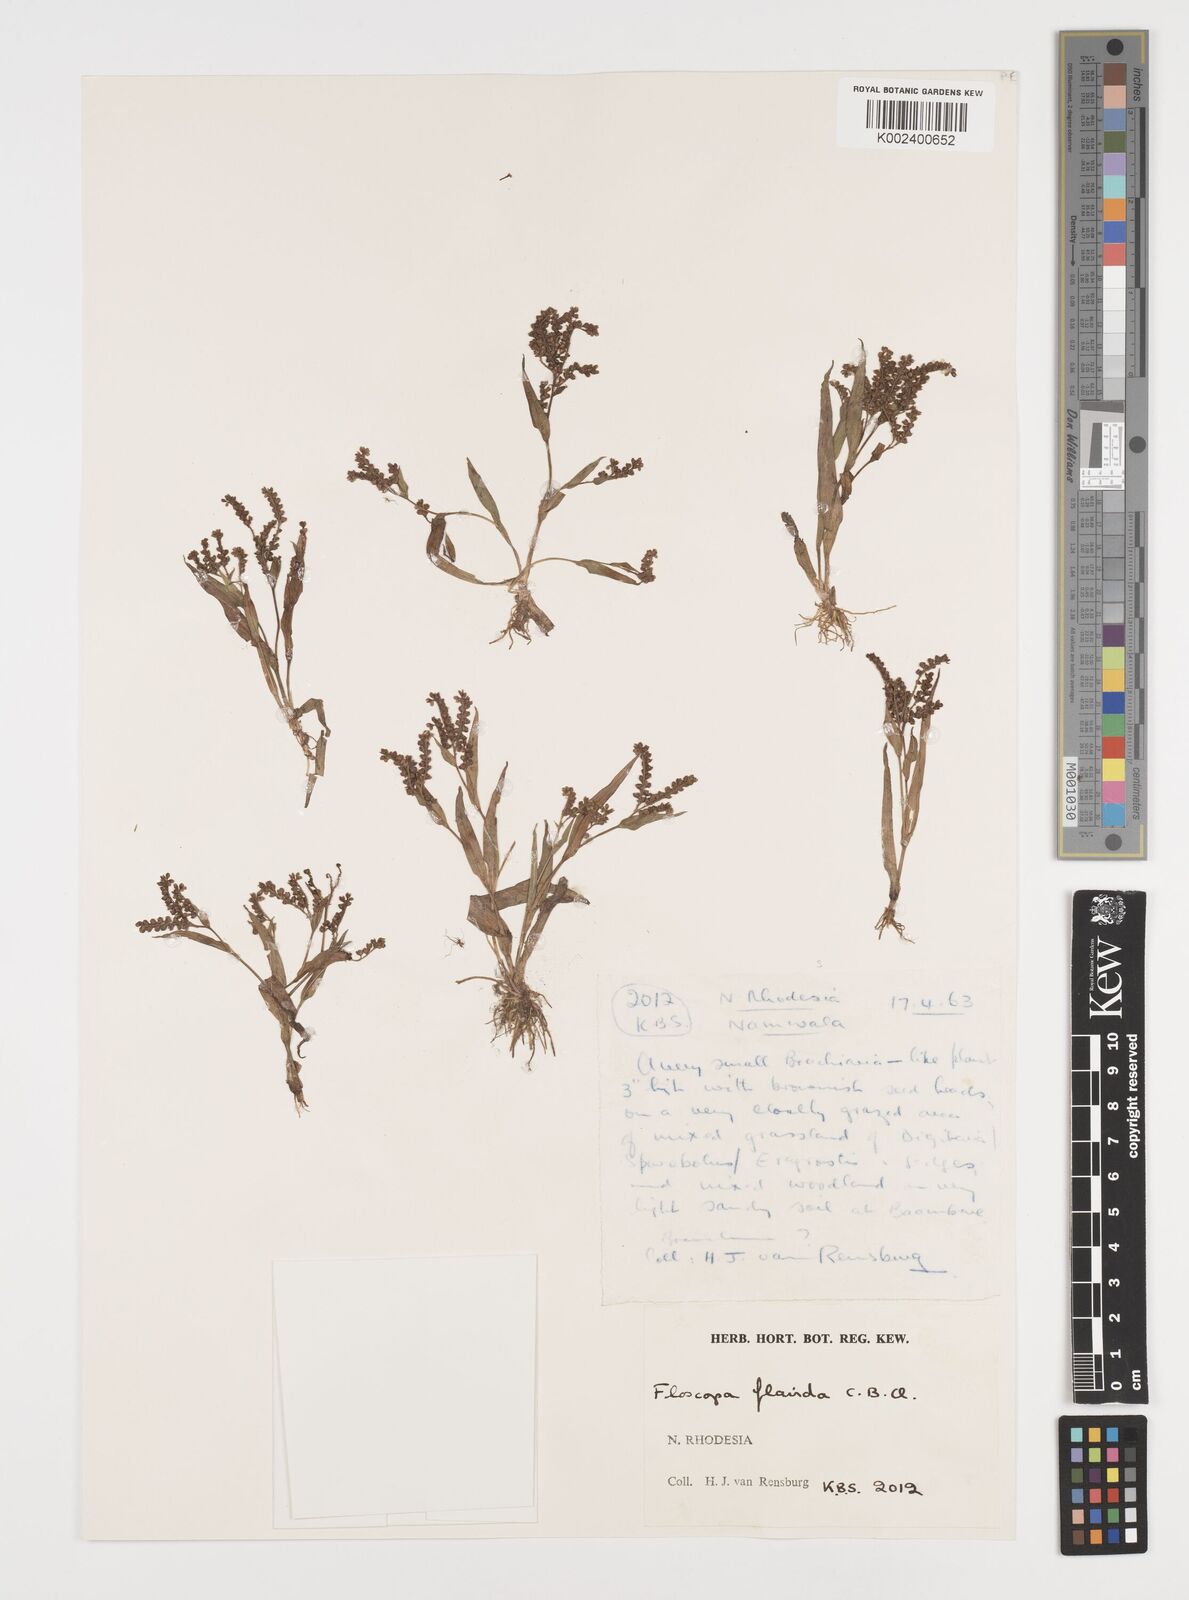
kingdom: Plantae
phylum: Tracheophyta
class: Liliopsida
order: Commelinales
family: Commelinaceae
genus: Floscopa
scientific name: Floscopa flavida
